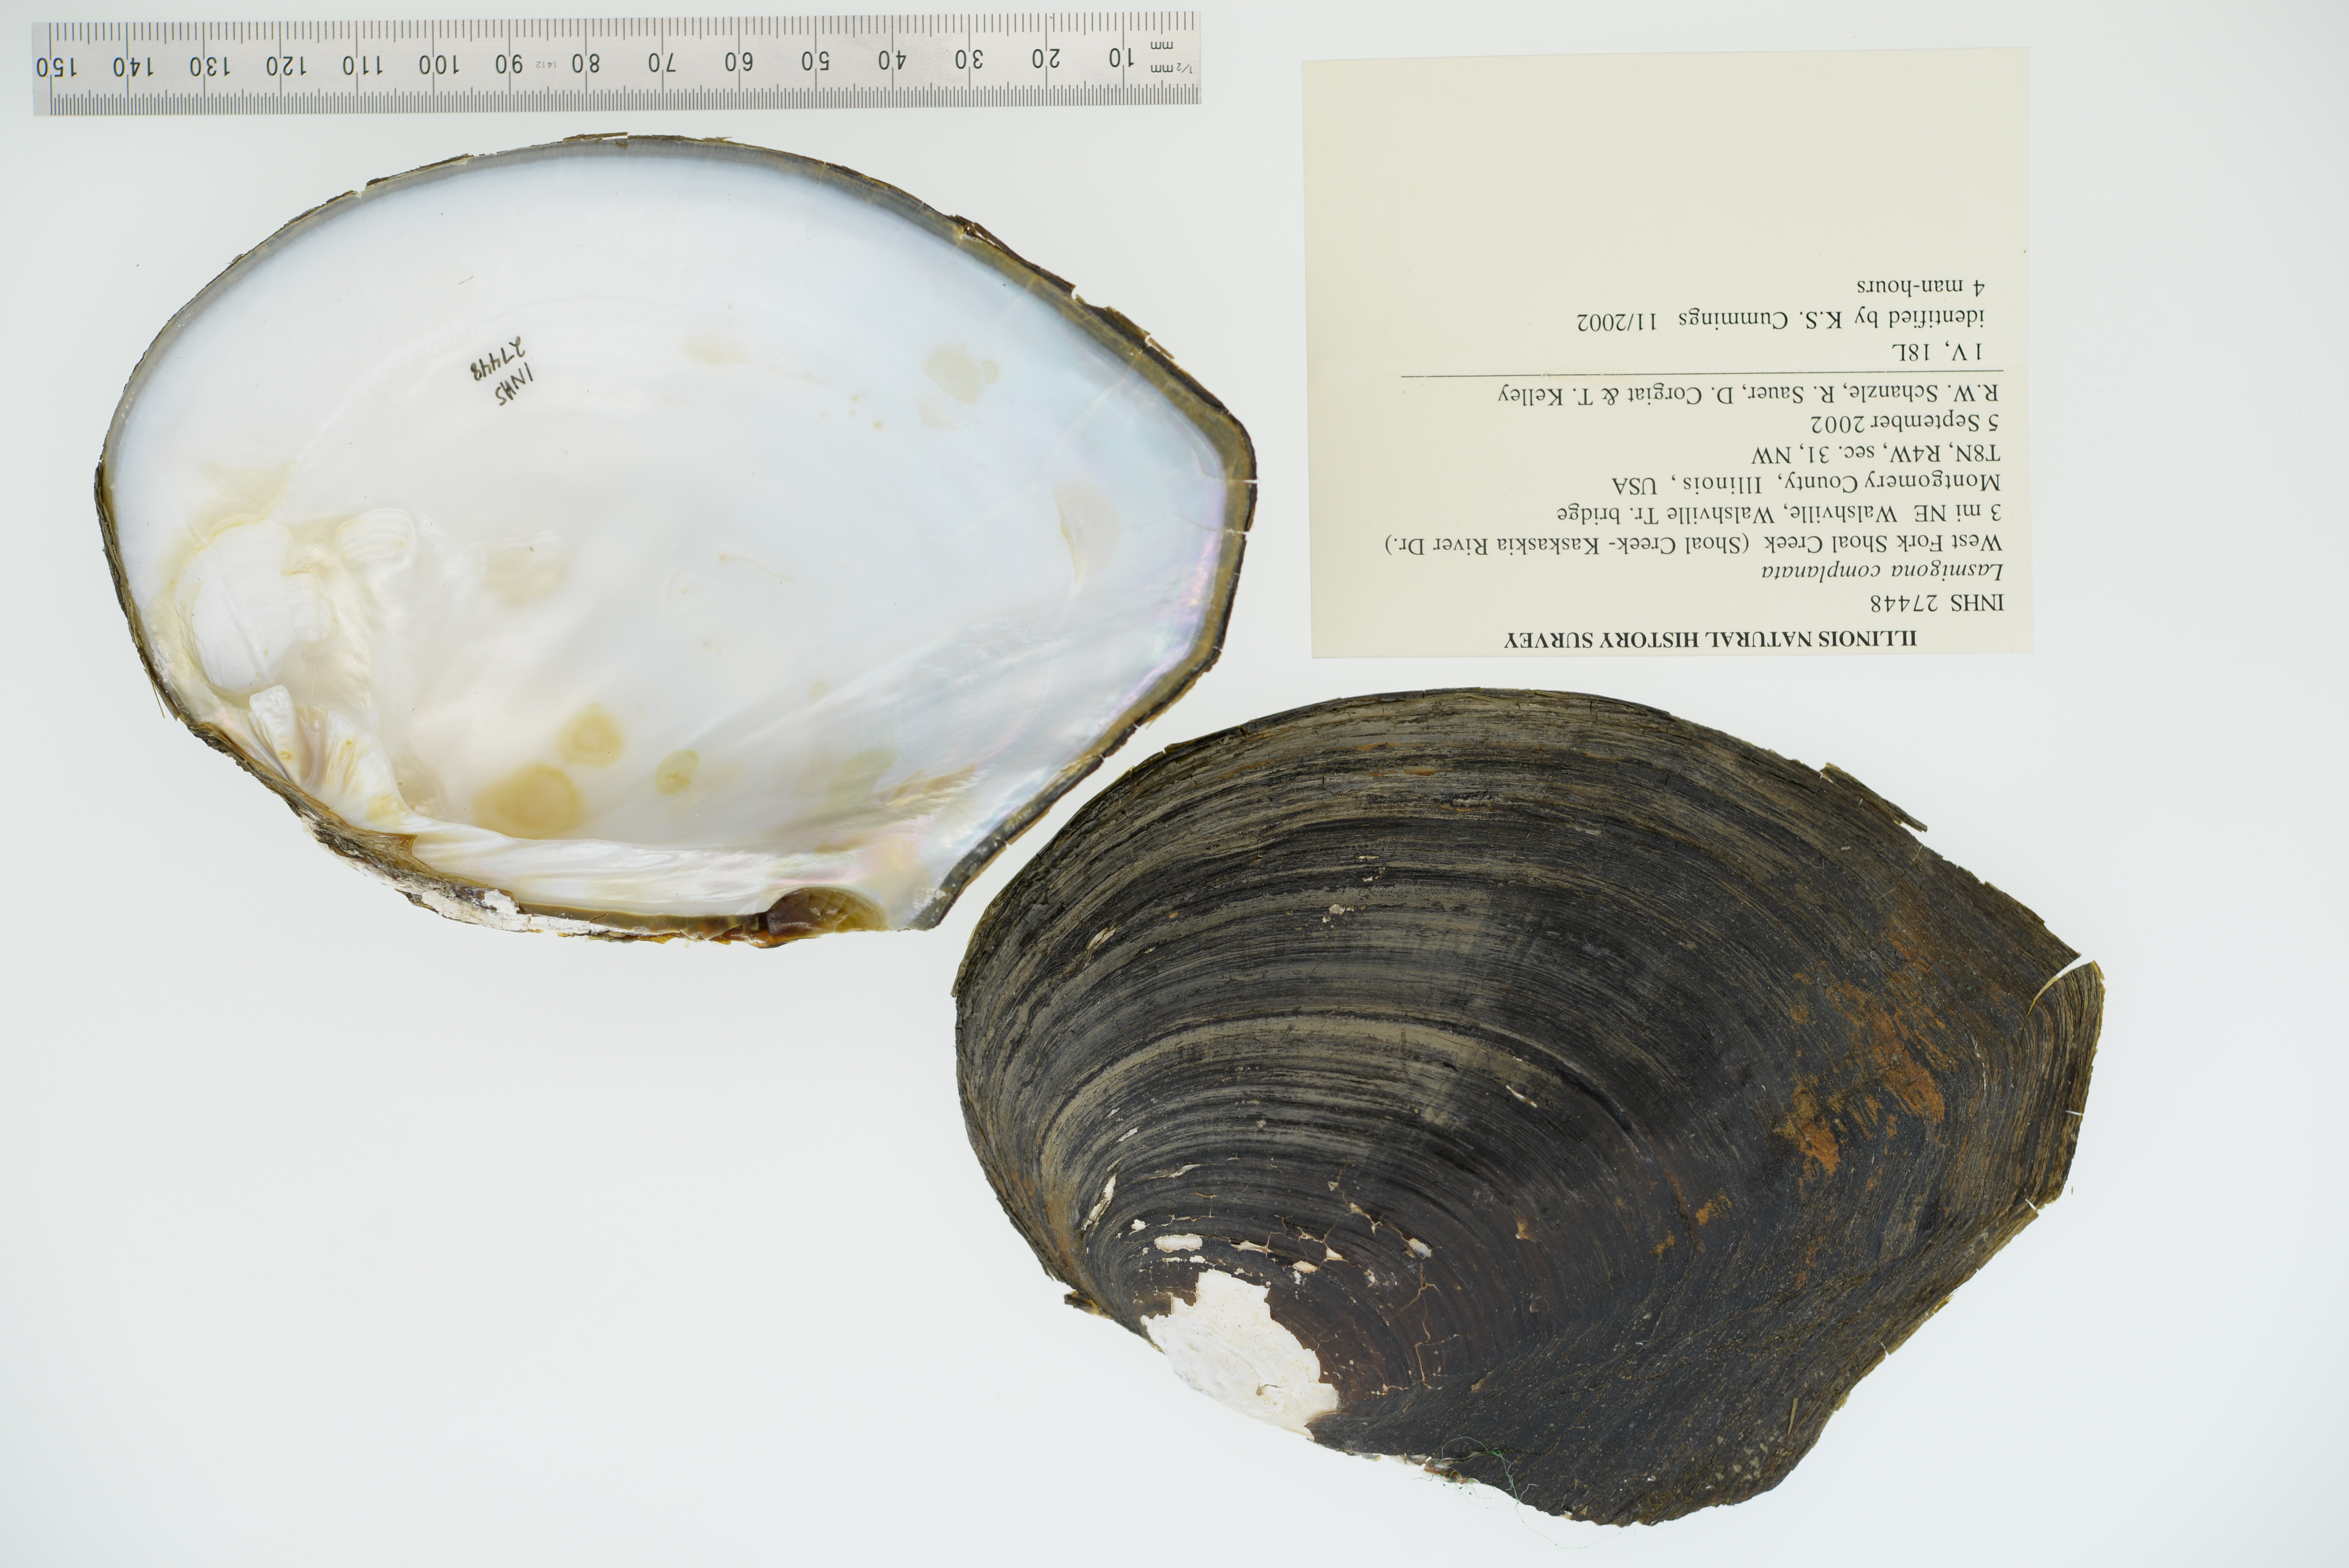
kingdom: Animalia
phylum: Mollusca
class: Bivalvia
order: Unionida
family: Unionidae
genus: Lasmigona
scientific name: Lasmigona complanata
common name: White heelsplitter
